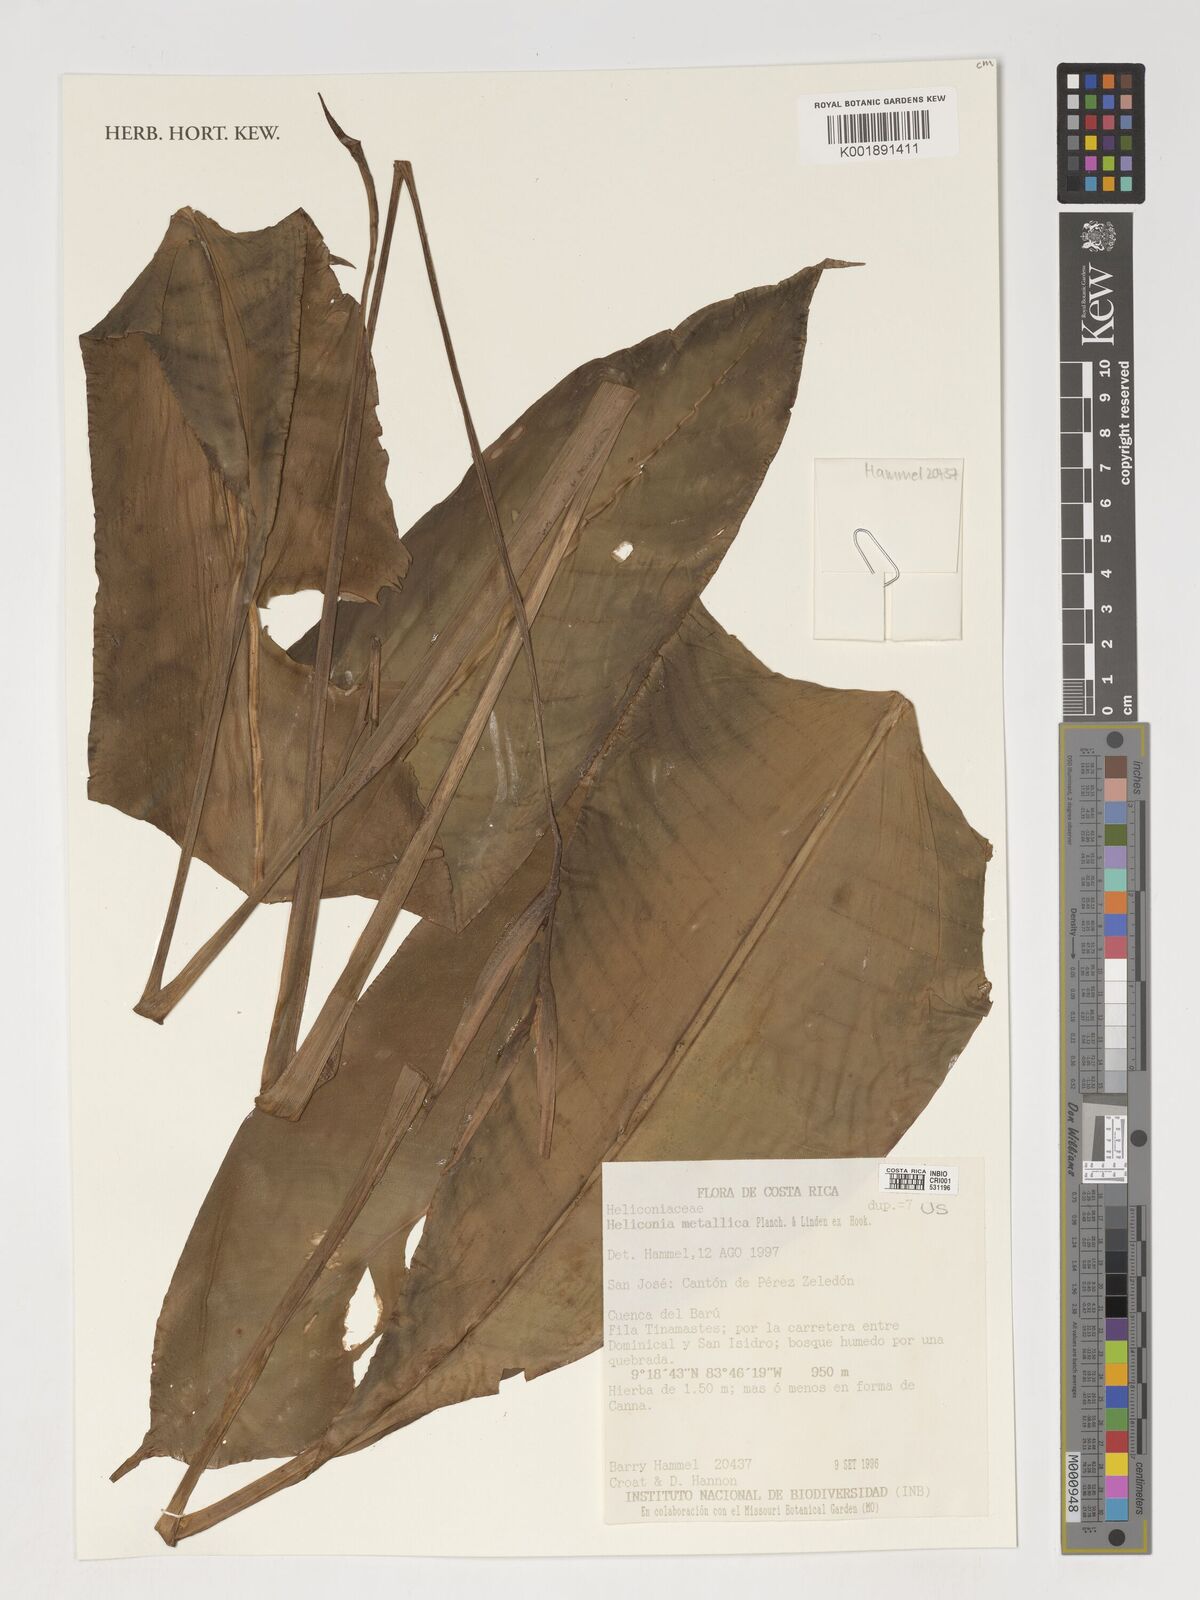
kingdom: Plantae
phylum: Tracheophyta
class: Liliopsida
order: Zingiberales
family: Heliconiaceae
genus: Heliconia
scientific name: Heliconia metallica
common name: Shining bird of paradise
